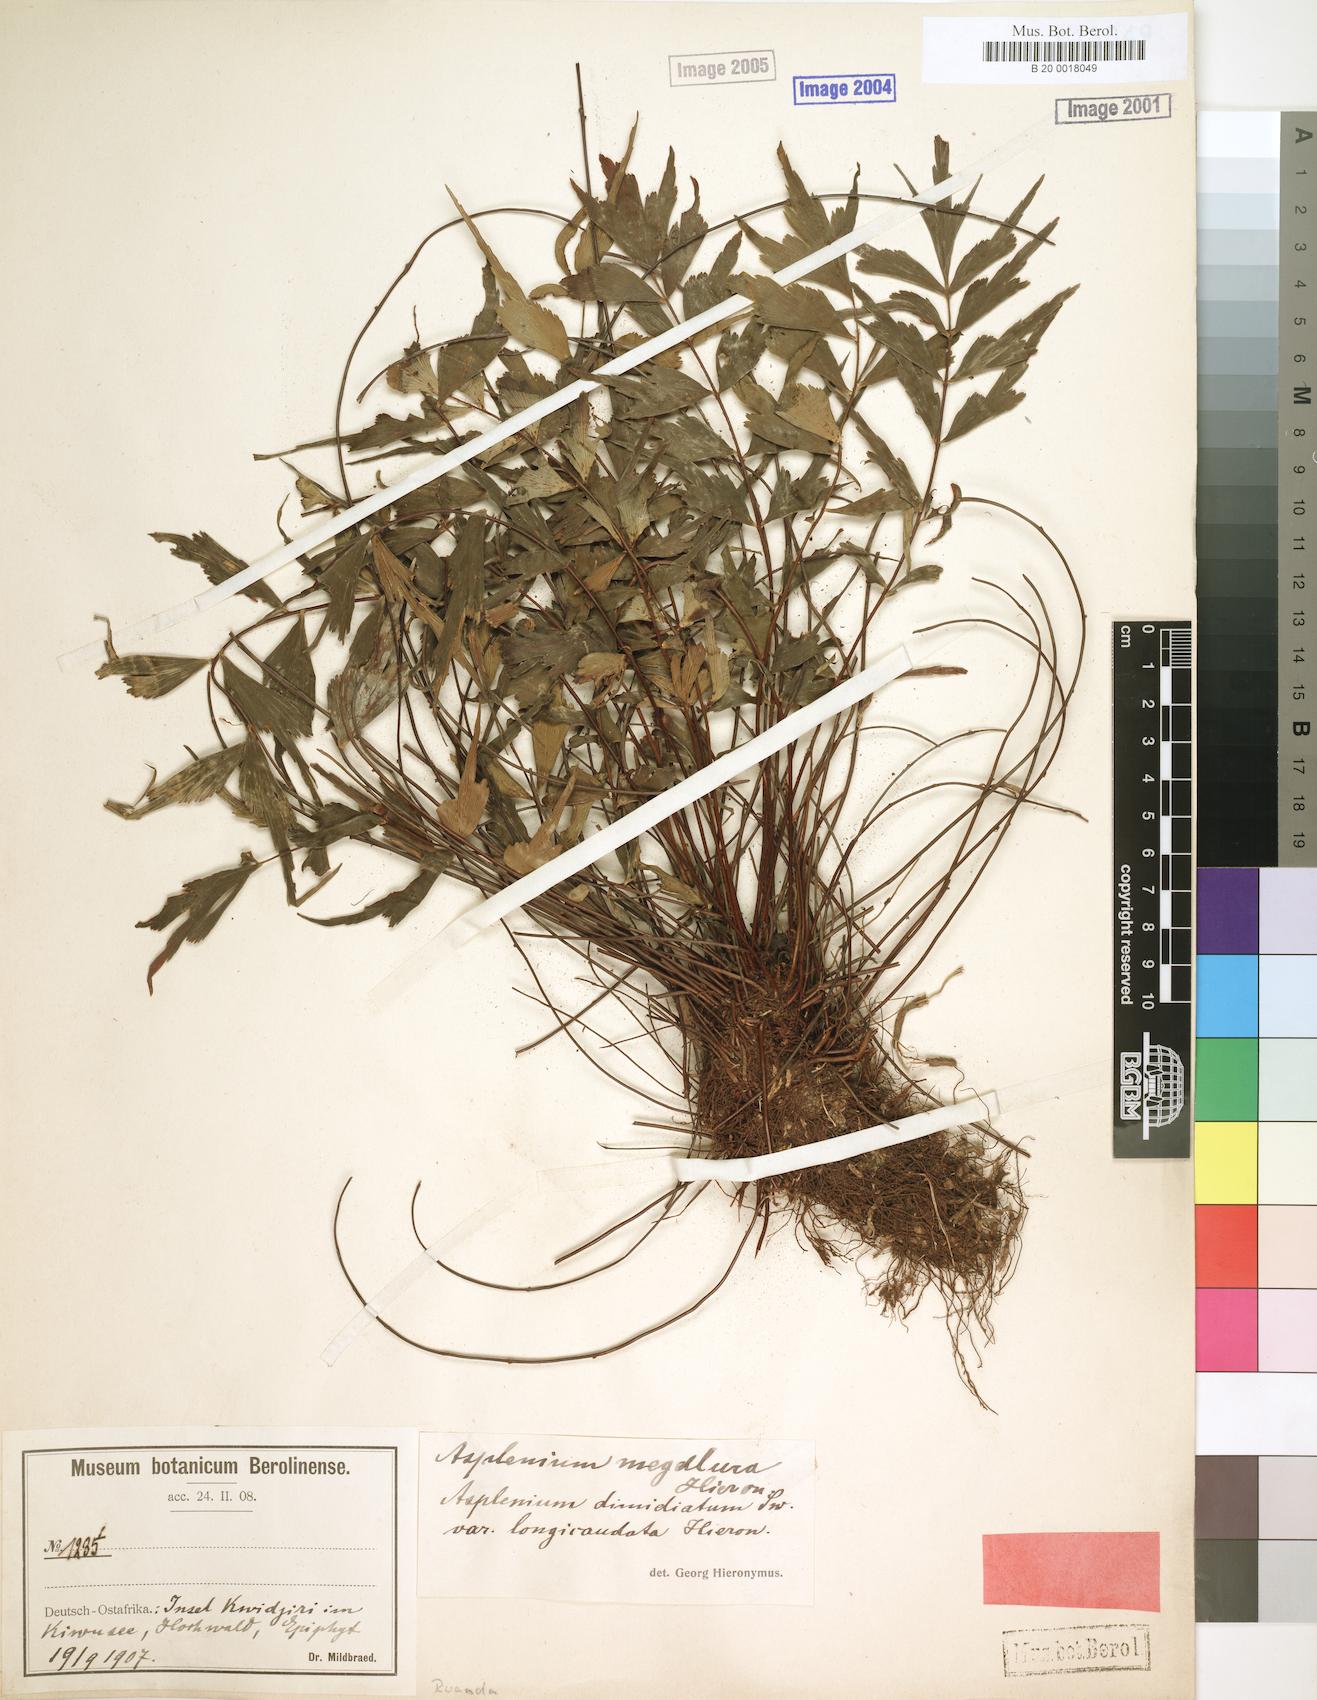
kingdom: Plantae
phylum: Tracheophyta
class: Polypodiopsida
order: Polypodiales
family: Aspleniaceae
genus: Asplenium
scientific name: Asplenium megalura
